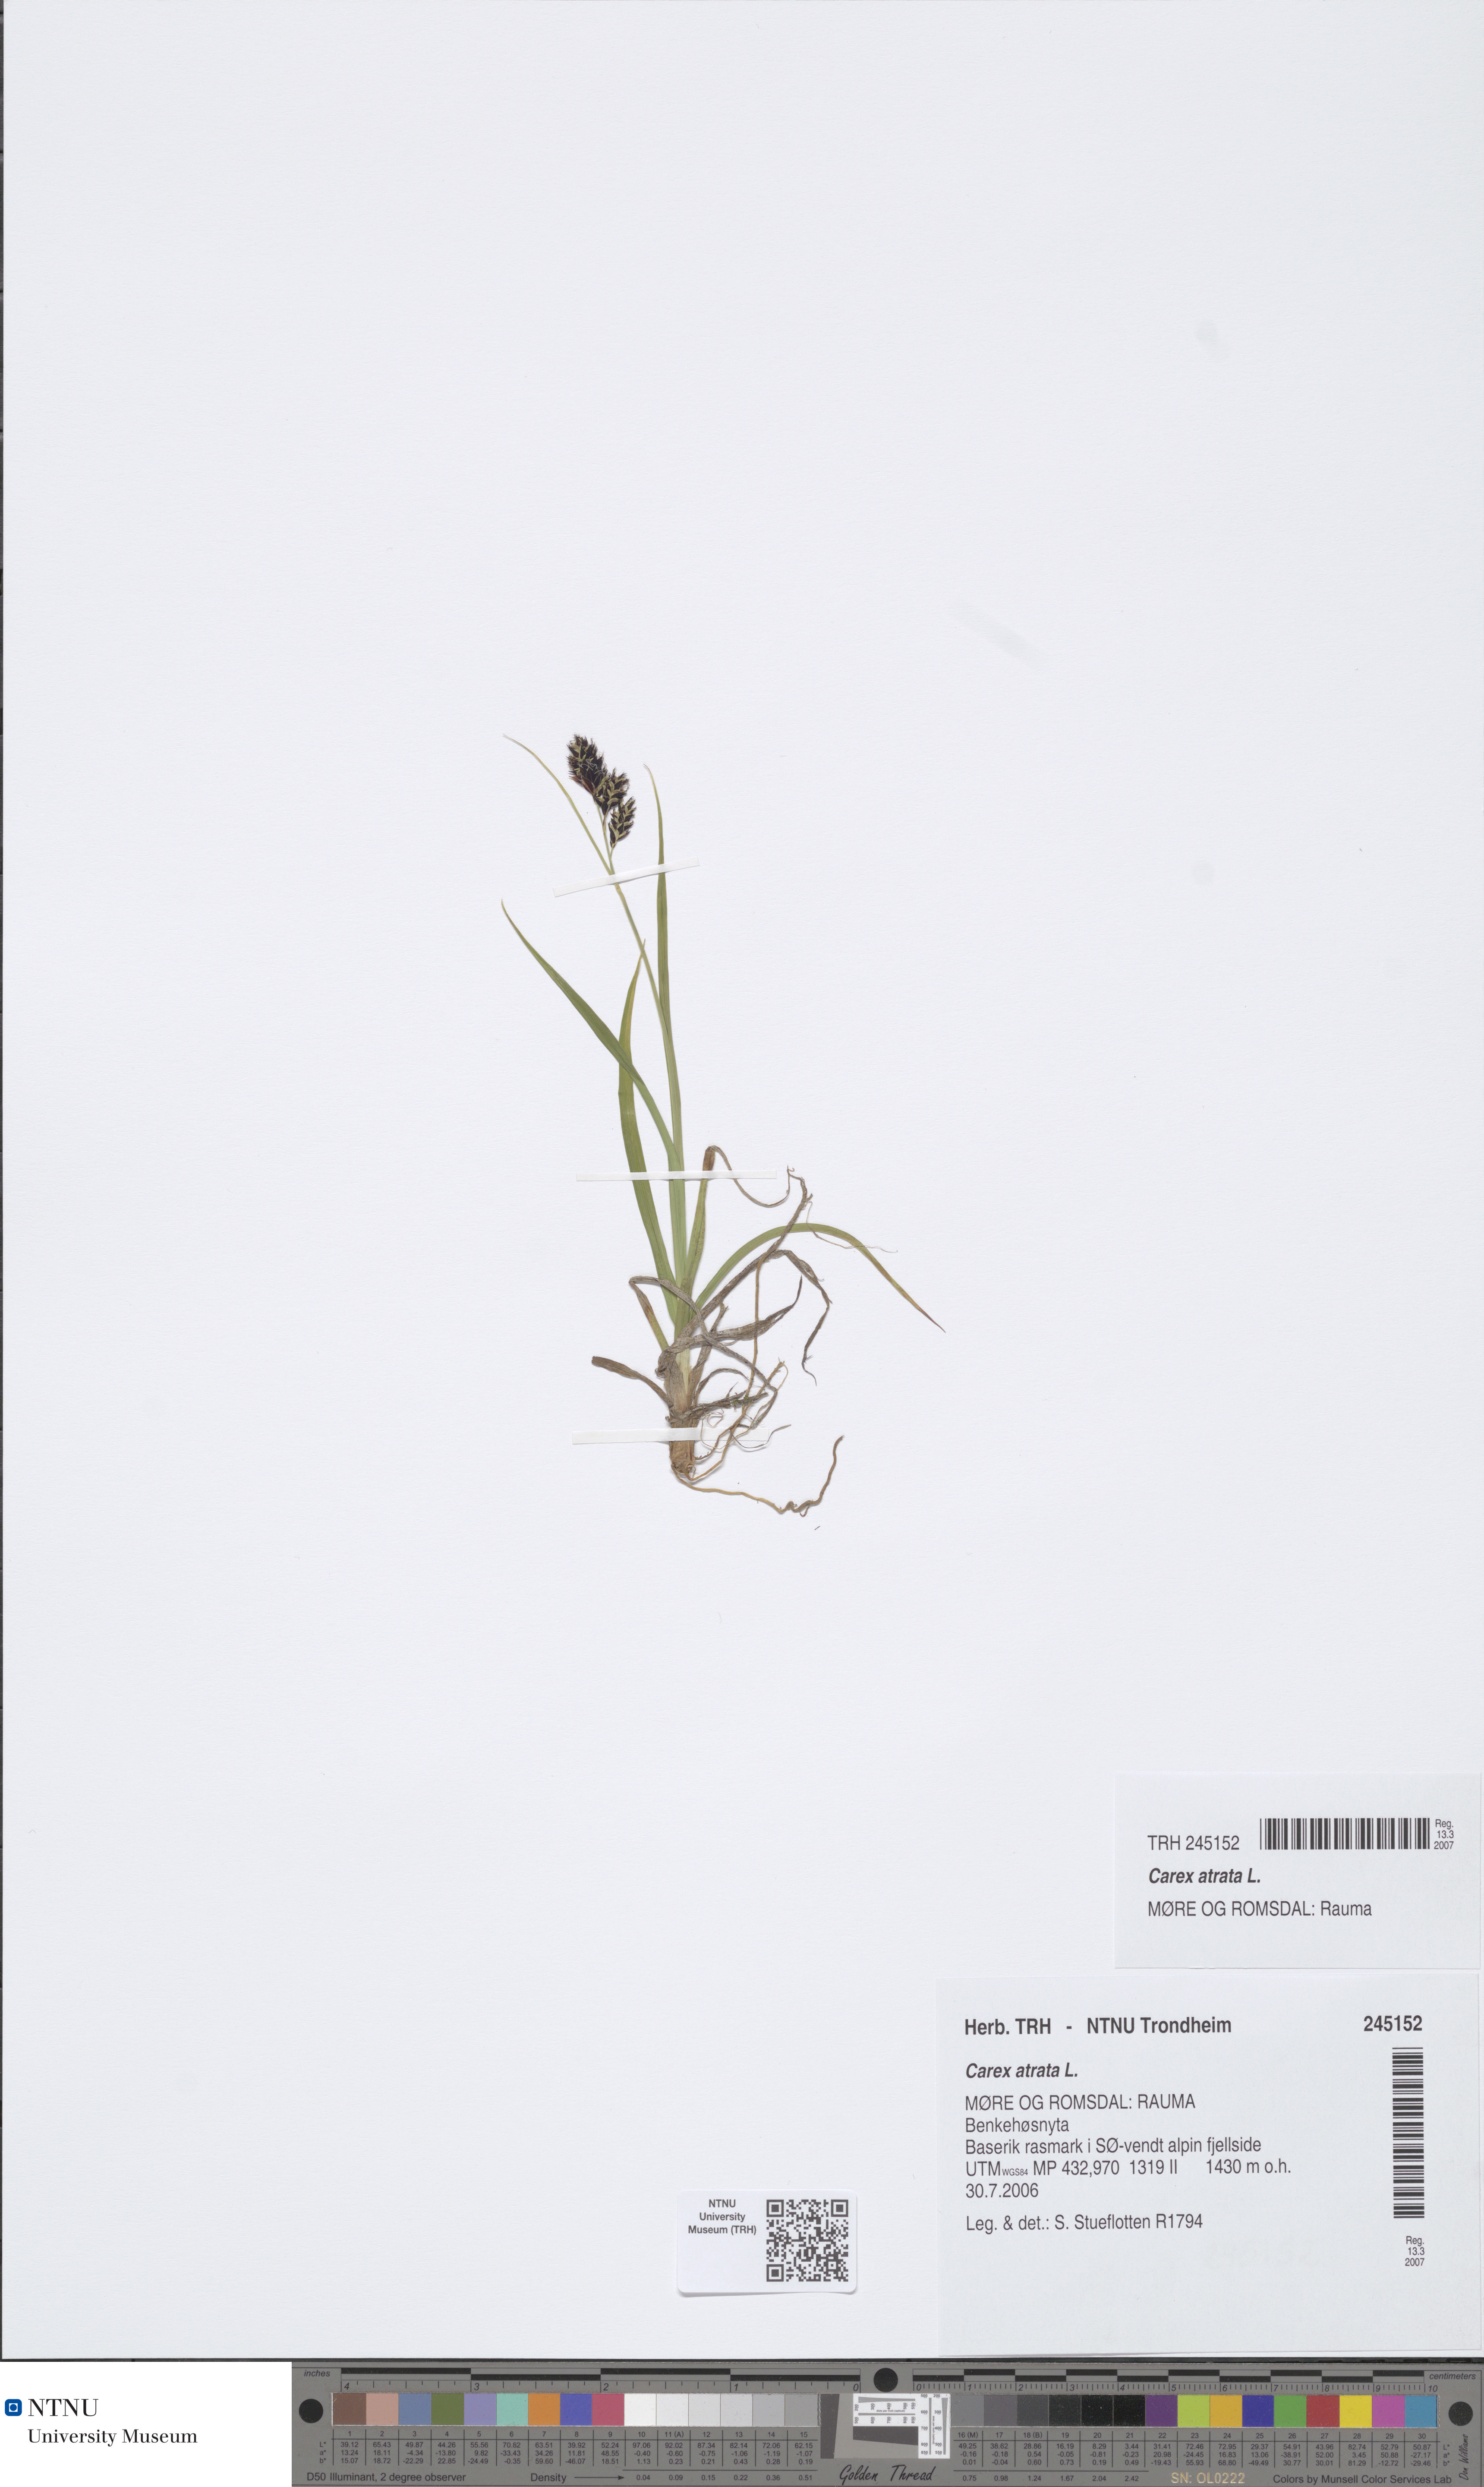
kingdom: Plantae
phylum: Tracheophyta
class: Liliopsida
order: Poales
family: Cyperaceae
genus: Carex
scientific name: Carex atrata
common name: Black alpine sedge
